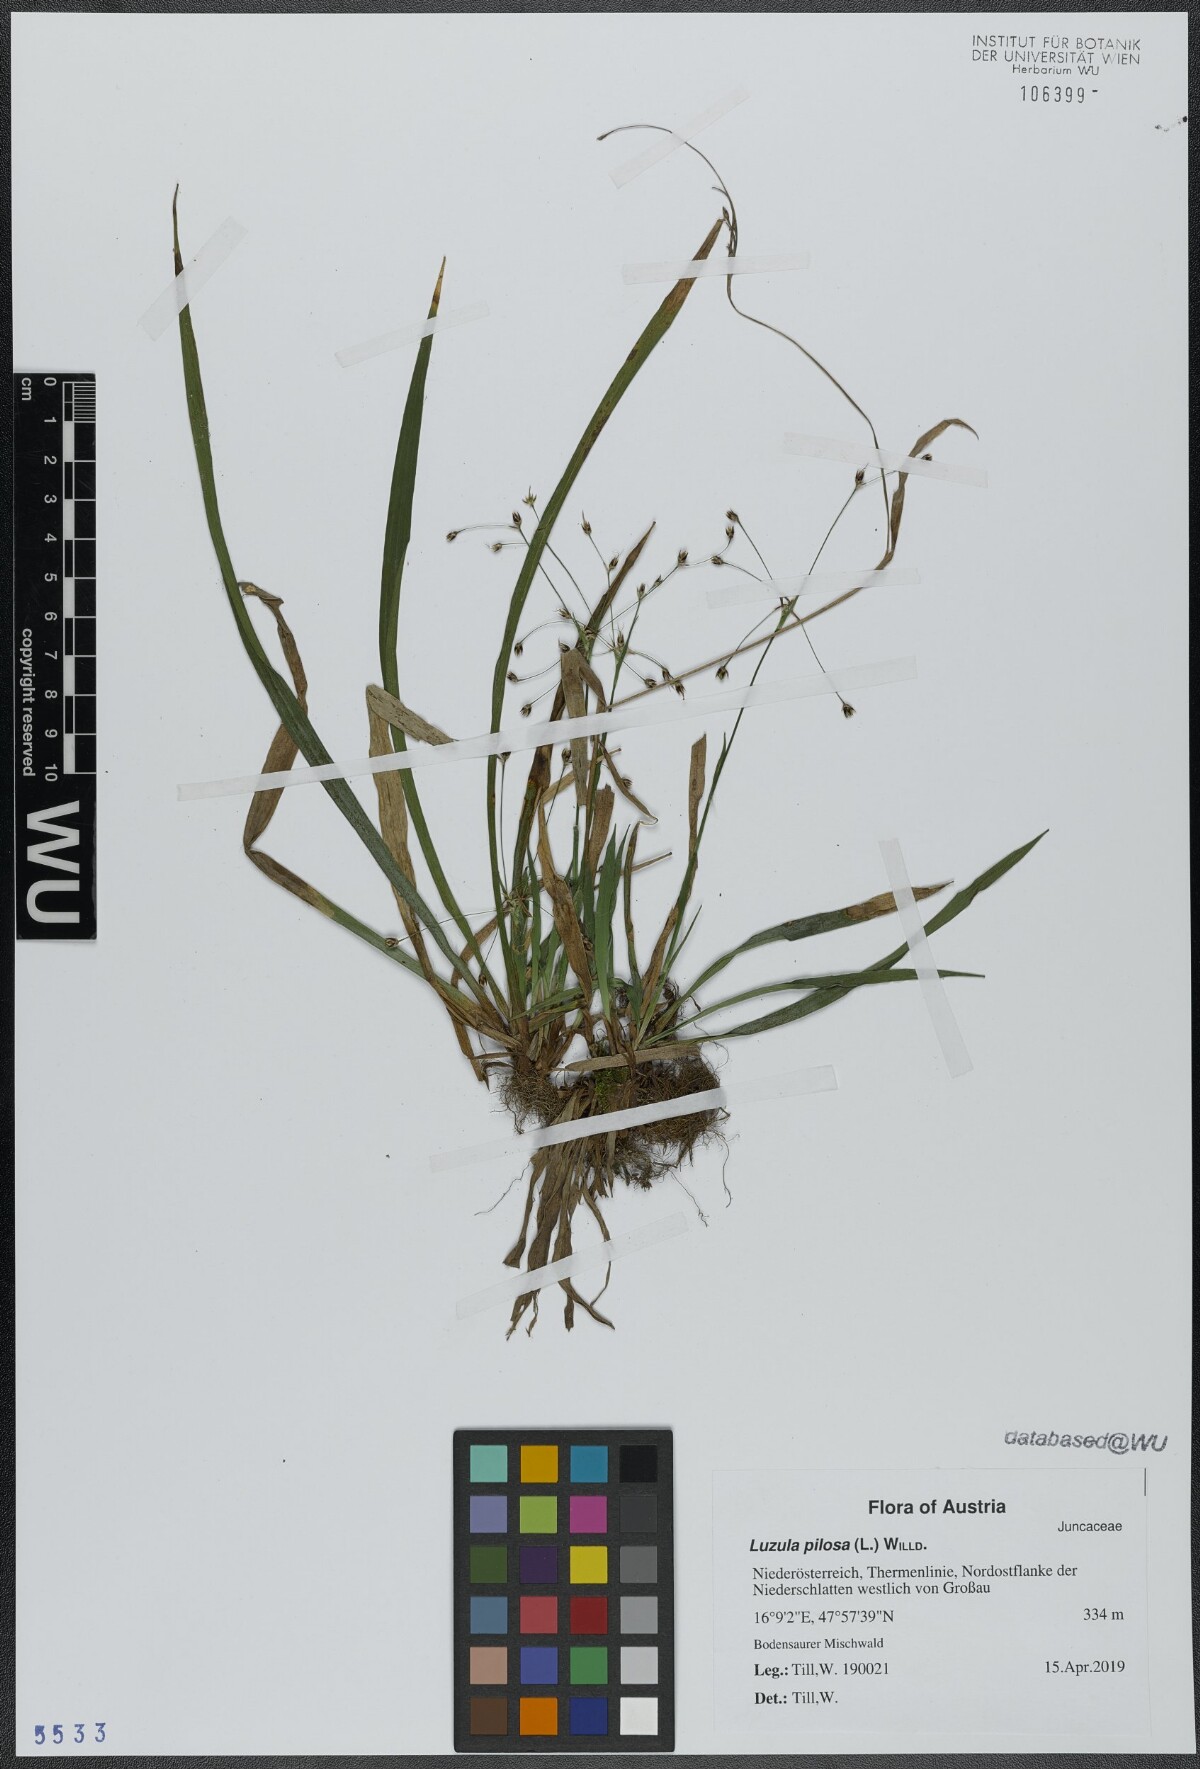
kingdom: Plantae
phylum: Tracheophyta
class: Liliopsida
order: Poales
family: Juncaceae
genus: Luzula
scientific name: Luzula pilosa
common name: Hairy wood-rush
